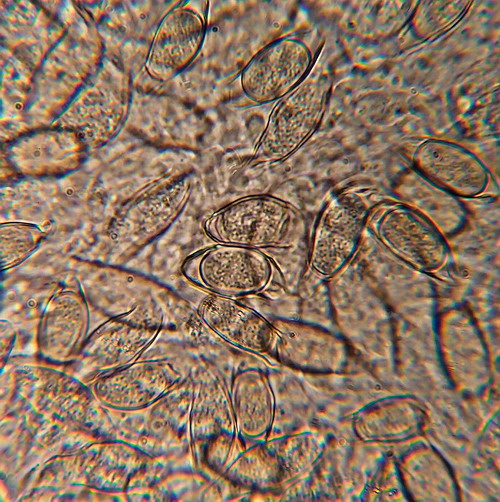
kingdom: Fungi
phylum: Basidiomycota
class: Agaricomycetes
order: Agaricales
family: Lyophyllaceae
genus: Asterophora
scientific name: Asterophora parasitica
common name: grå snyltehat
